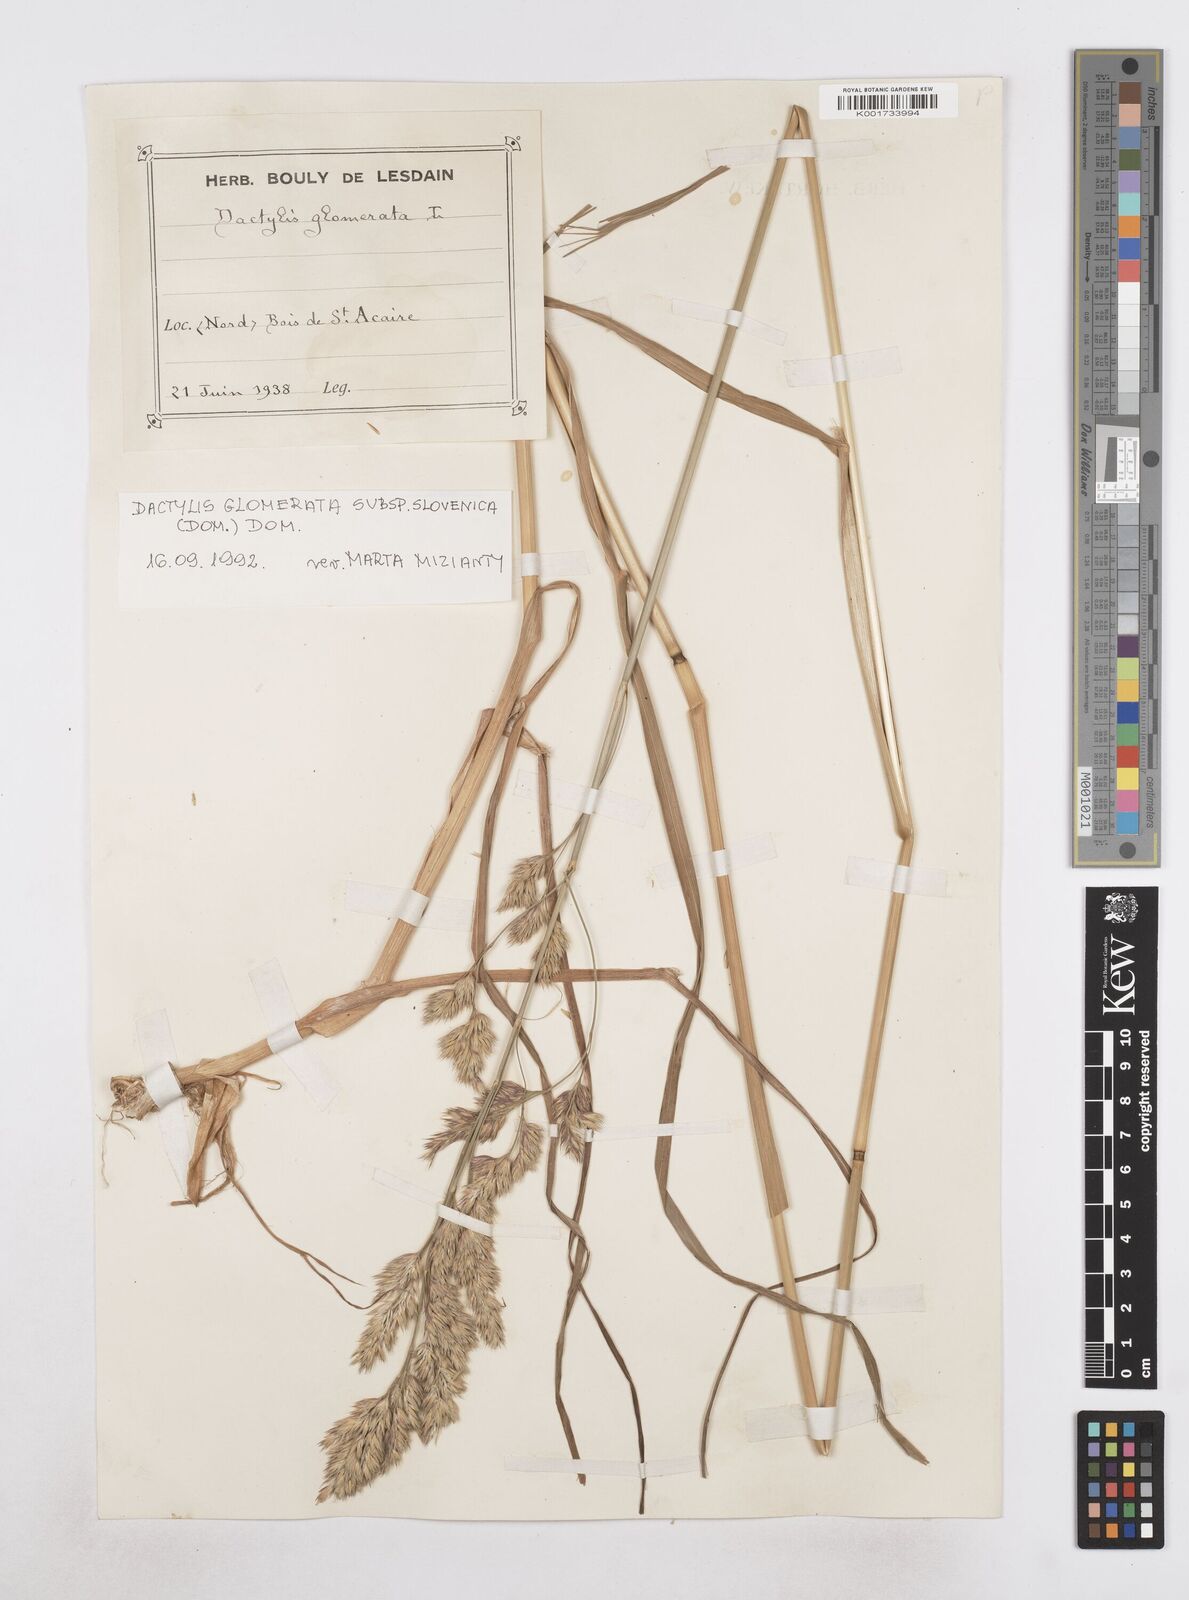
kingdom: Plantae
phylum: Tracheophyta
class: Liliopsida
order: Poales
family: Poaceae
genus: Dactylis
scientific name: Dactylis glomerata
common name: Orchardgrass
